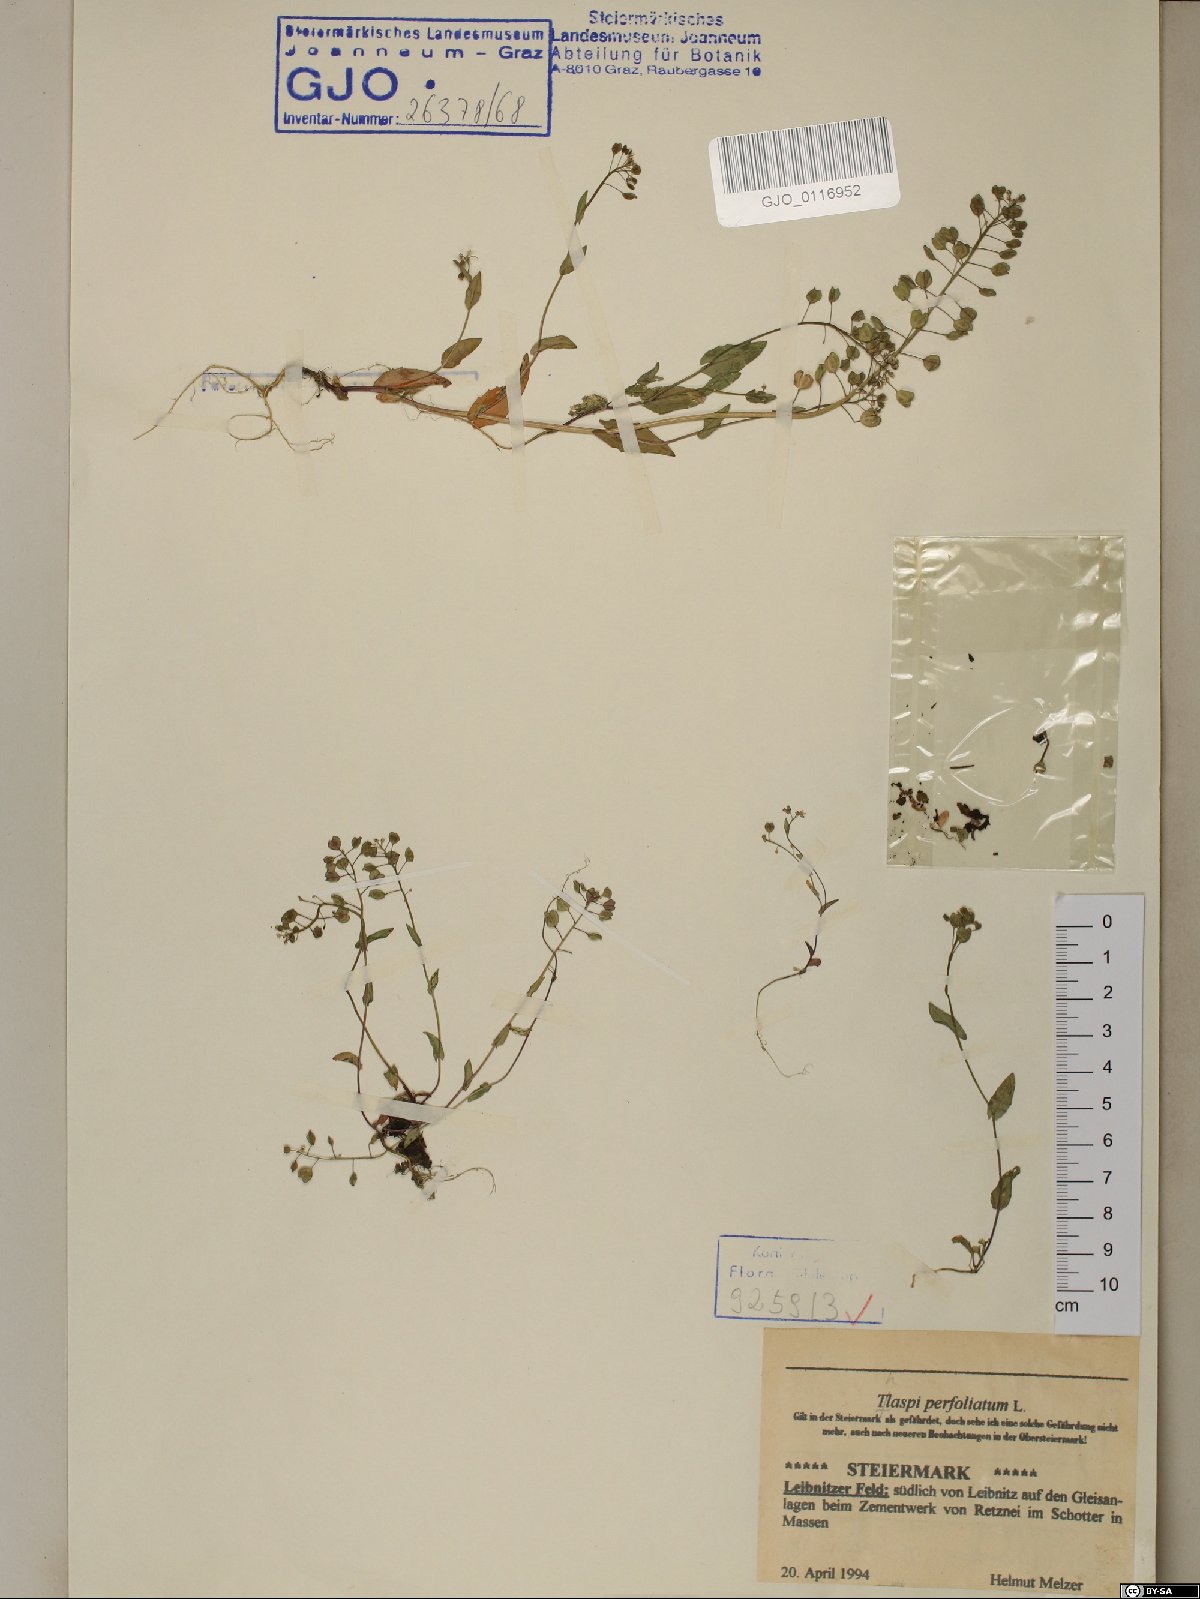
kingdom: Plantae
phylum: Tracheophyta
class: Magnoliopsida
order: Brassicales
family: Brassicaceae
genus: Noccaea
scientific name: Noccaea perfoliata
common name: Perfoliate pennycress
